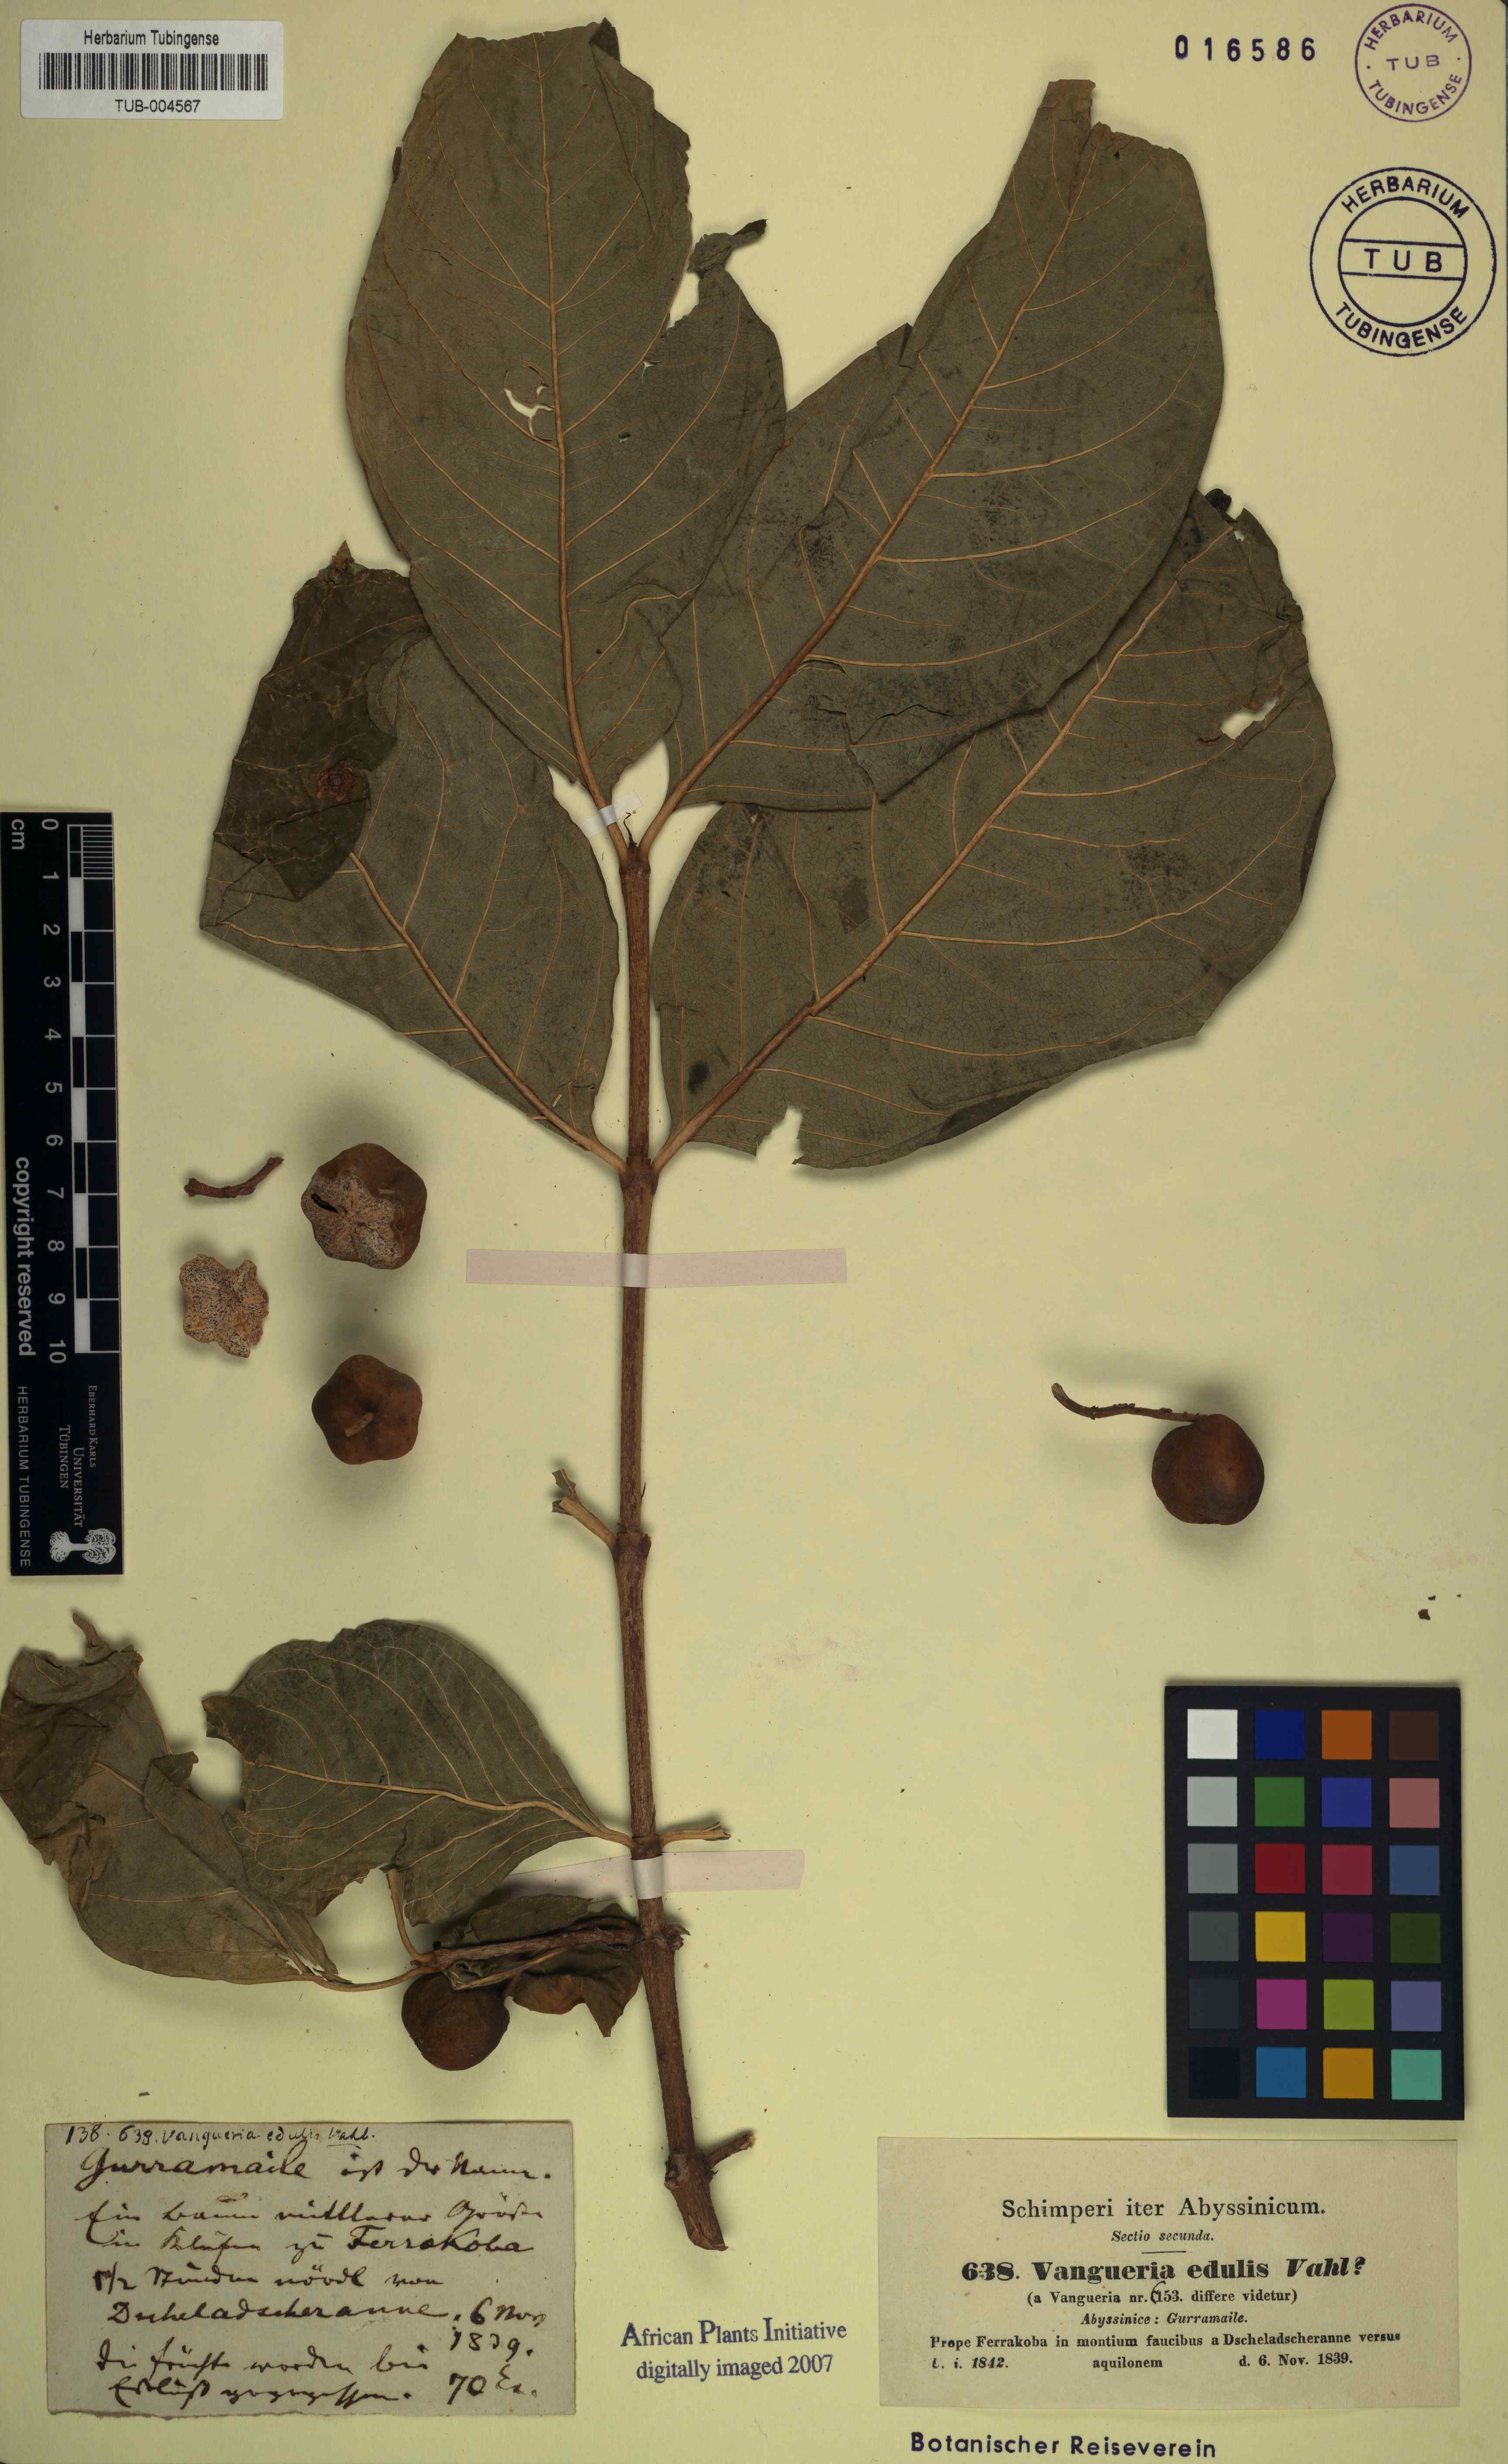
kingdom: Plantae
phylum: Tracheophyta
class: Magnoliopsida
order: Gentianales
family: Rubiaceae
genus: Vangueria
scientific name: Vangueria madagascariensis
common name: Smooth wild-medlar
